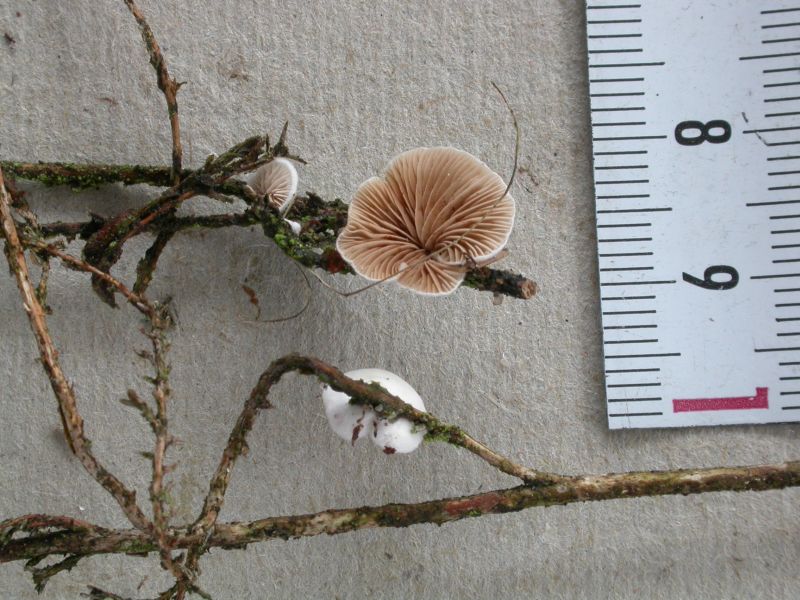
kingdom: Fungi
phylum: Basidiomycota
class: Agaricomycetes
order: Agaricales
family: Crepidotaceae
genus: Crepidotus
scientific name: Crepidotus variabilis
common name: forskelligformet muslingesvamp
